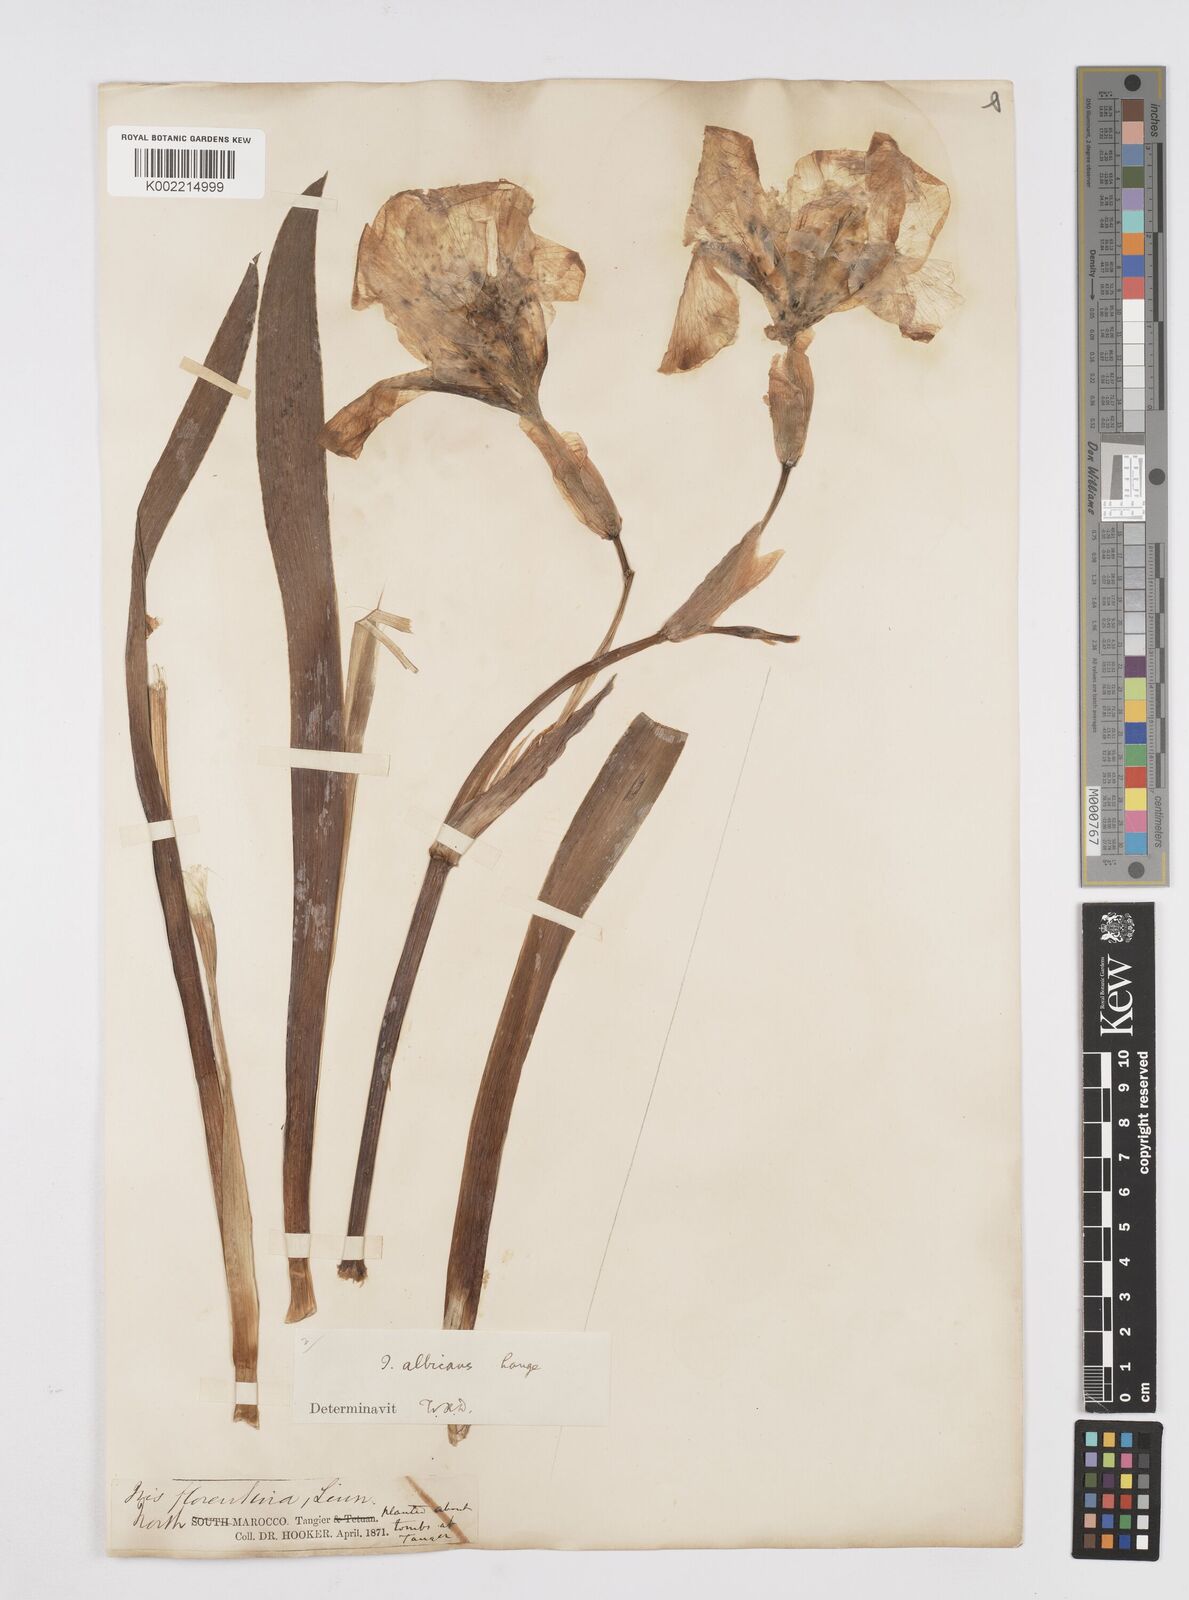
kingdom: Plantae
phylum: Tracheophyta
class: Liliopsida
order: Asparagales
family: Iridaceae
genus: Iris
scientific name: Iris florentina
